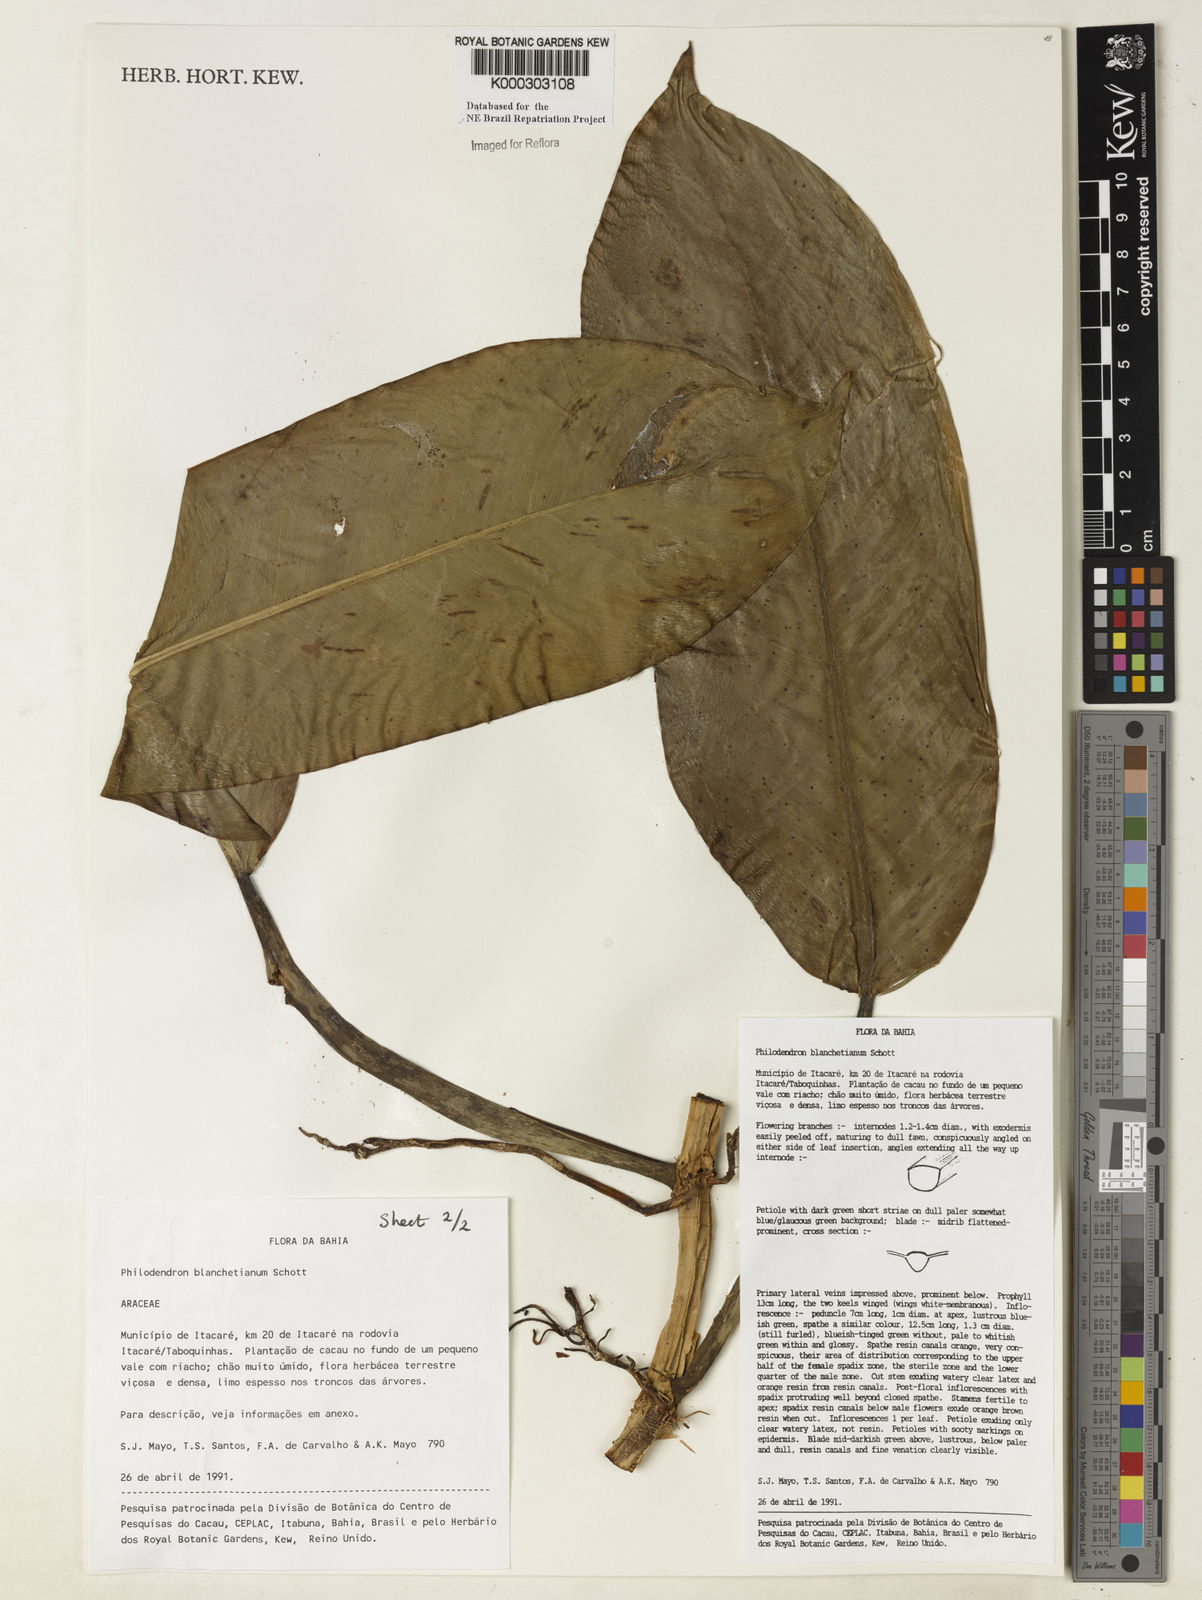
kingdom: Plantae
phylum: Tracheophyta
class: Liliopsida
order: Alismatales
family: Araceae
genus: Philodendron
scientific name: Philodendron blanchetianum
